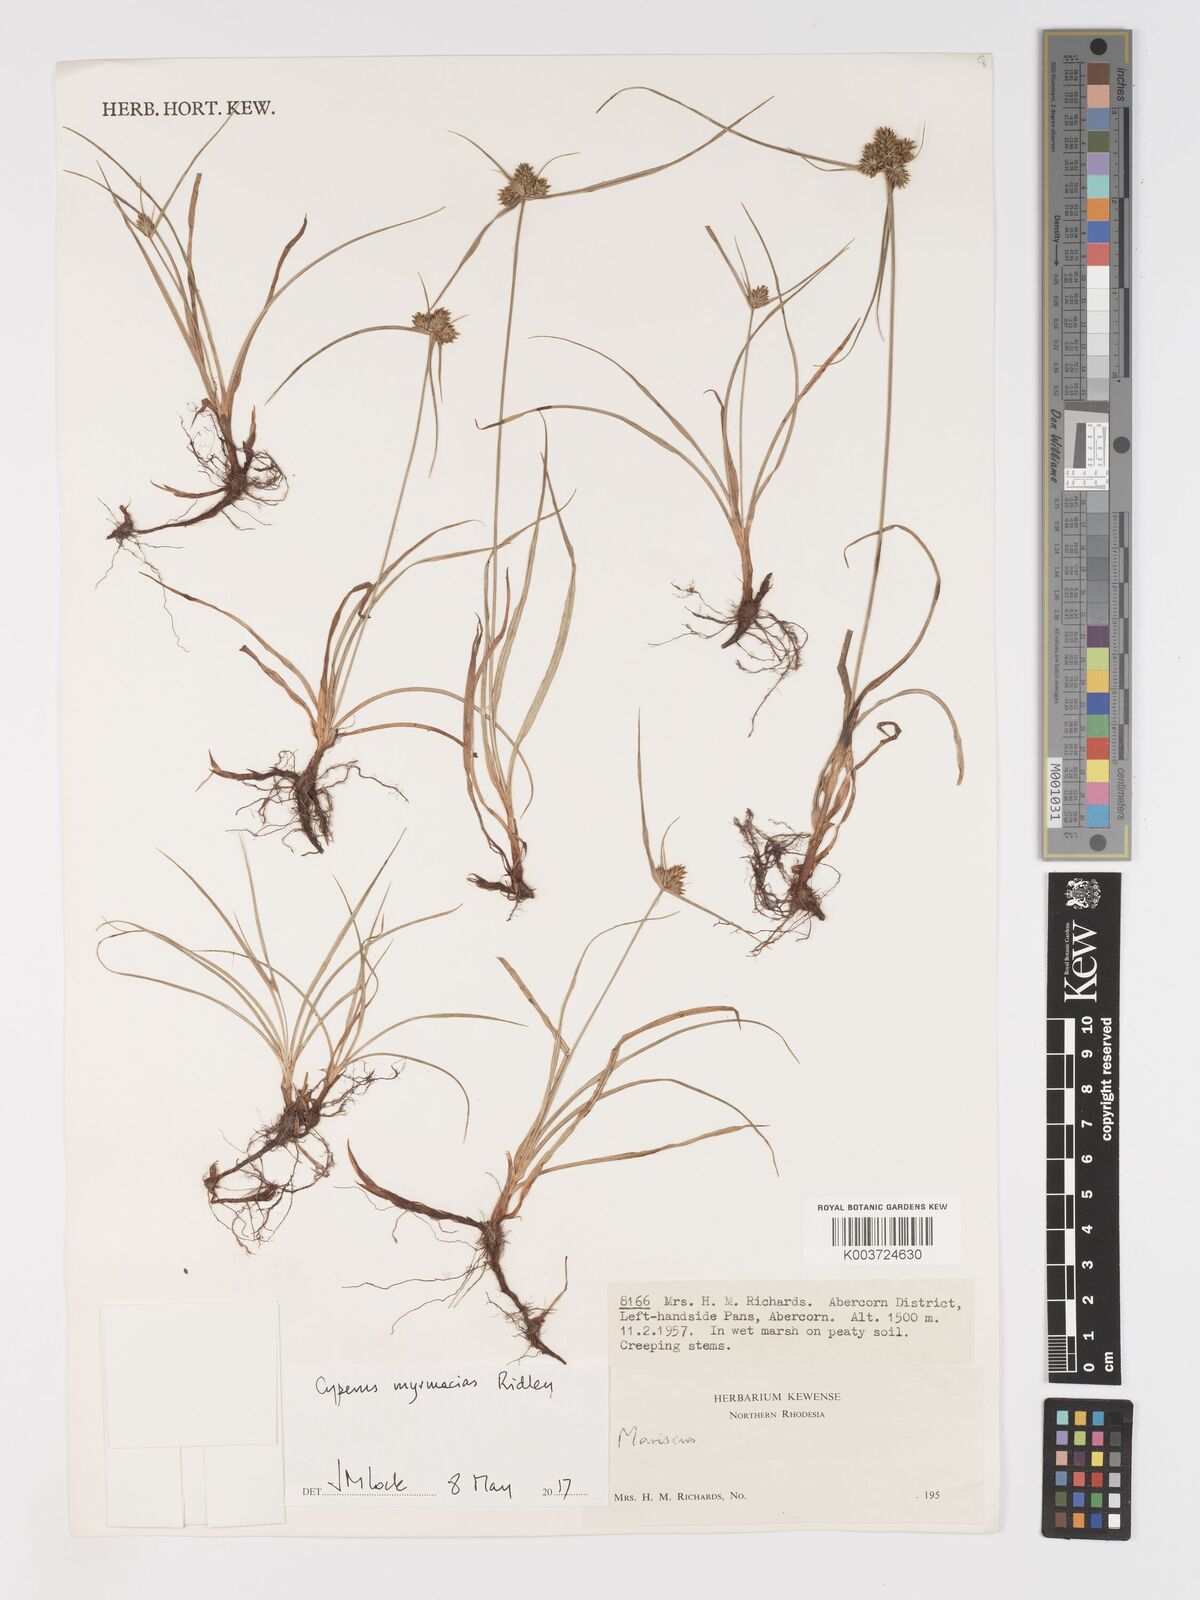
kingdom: Plantae
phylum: Tracheophyta
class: Liliopsida
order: Poales
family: Cyperaceae
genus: Cyperus
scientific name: Cyperus myrmecias
